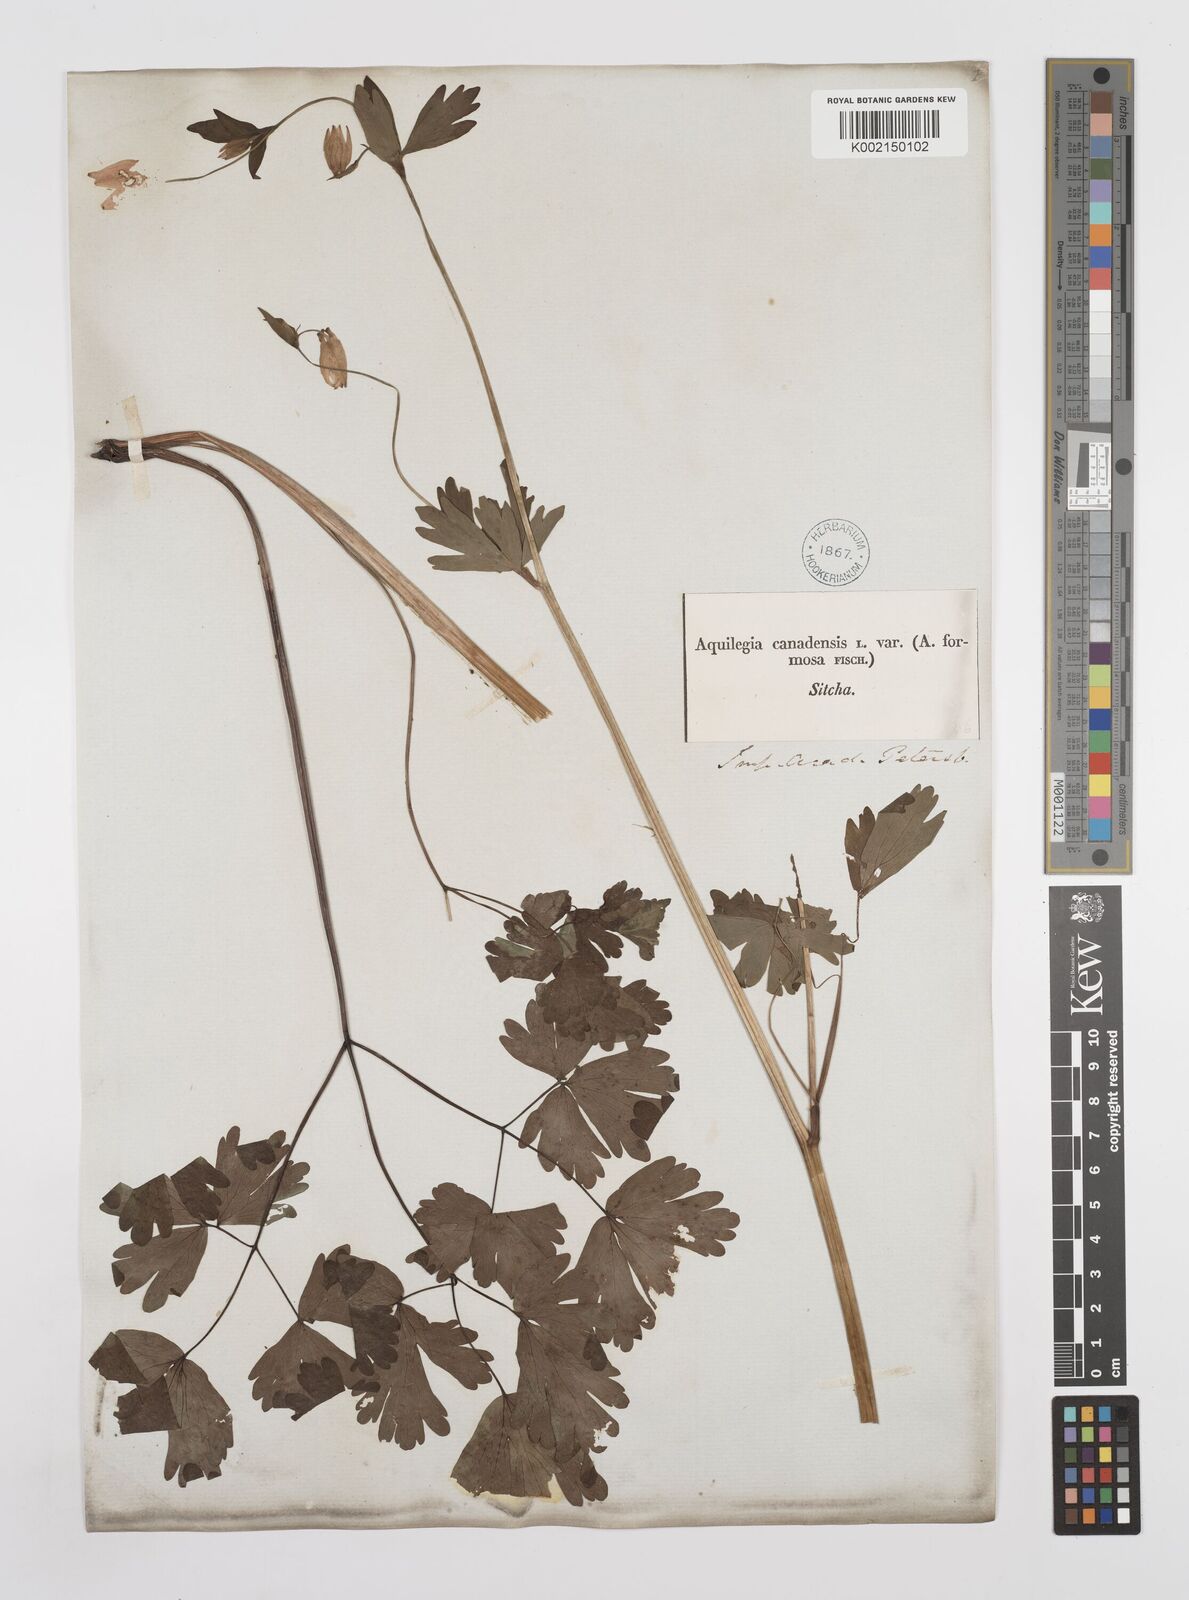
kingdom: Plantae
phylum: Tracheophyta
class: Magnoliopsida
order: Ranunculales
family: Ranunculaceae
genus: Aquilegia
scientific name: Aquilegia
